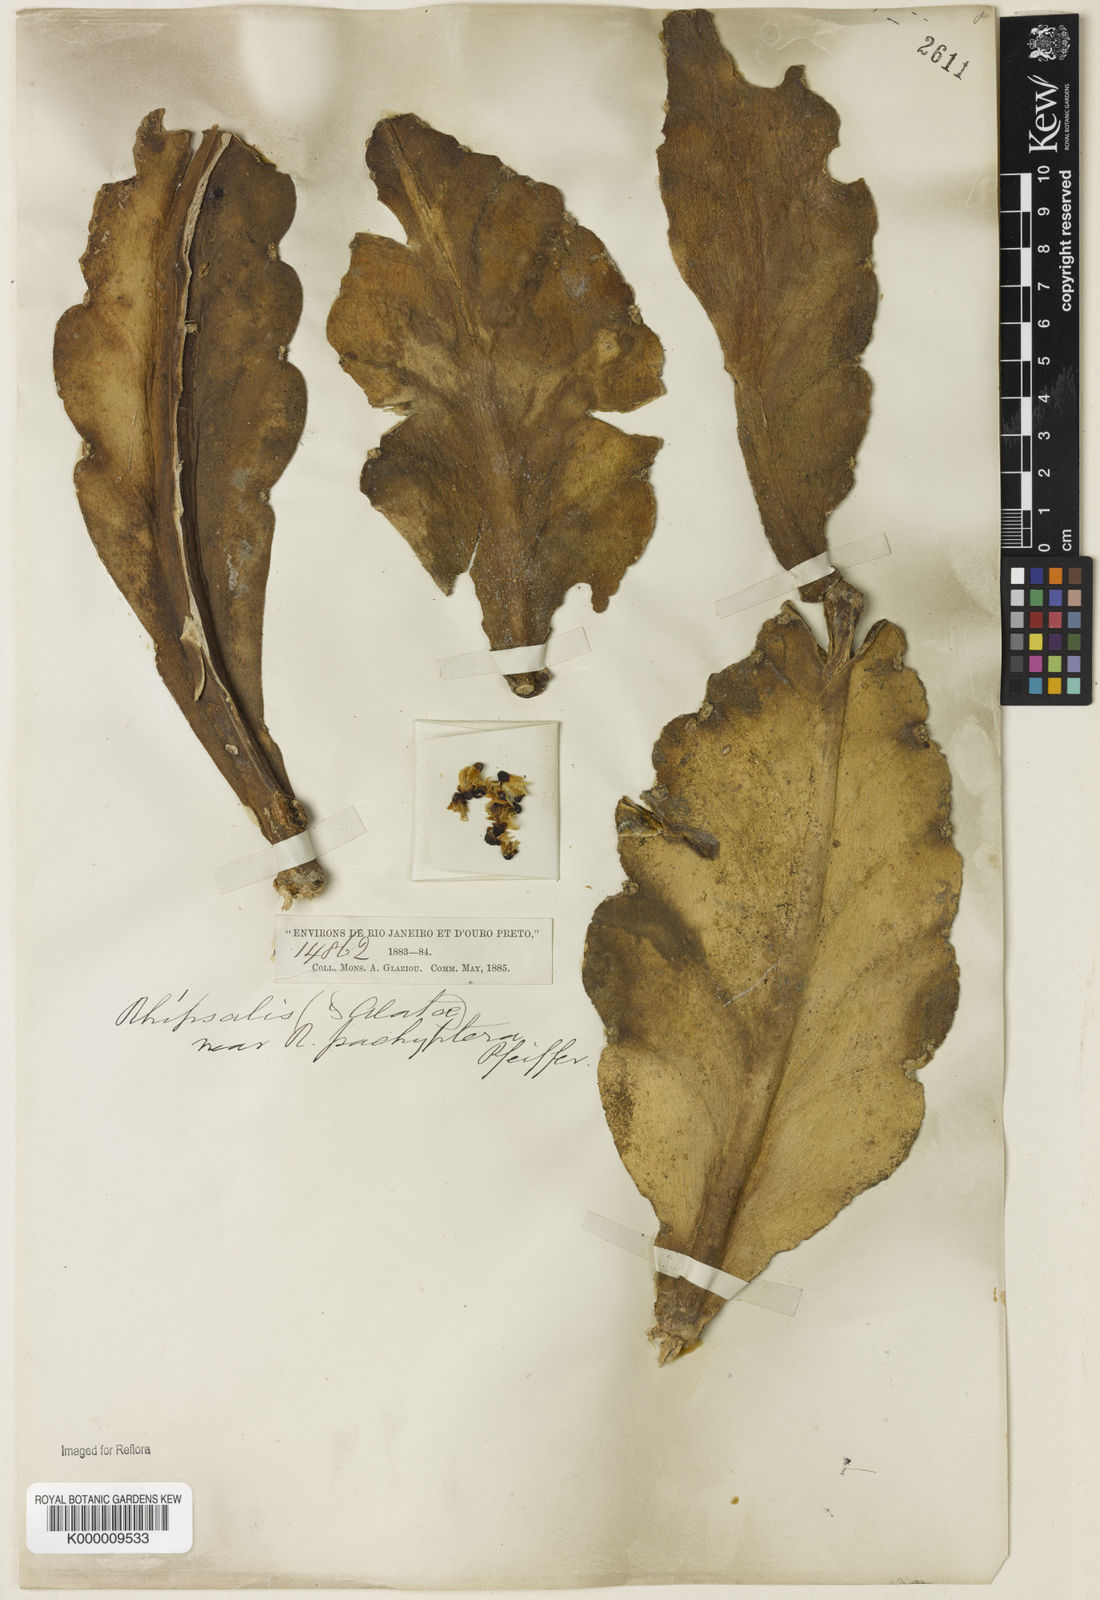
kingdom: Plantae
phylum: Tracheophyta
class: Magnoliopsida
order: Caryophyllales
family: Cactaceae
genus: Rhipsalis
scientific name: Rhipsalis pachyptera
